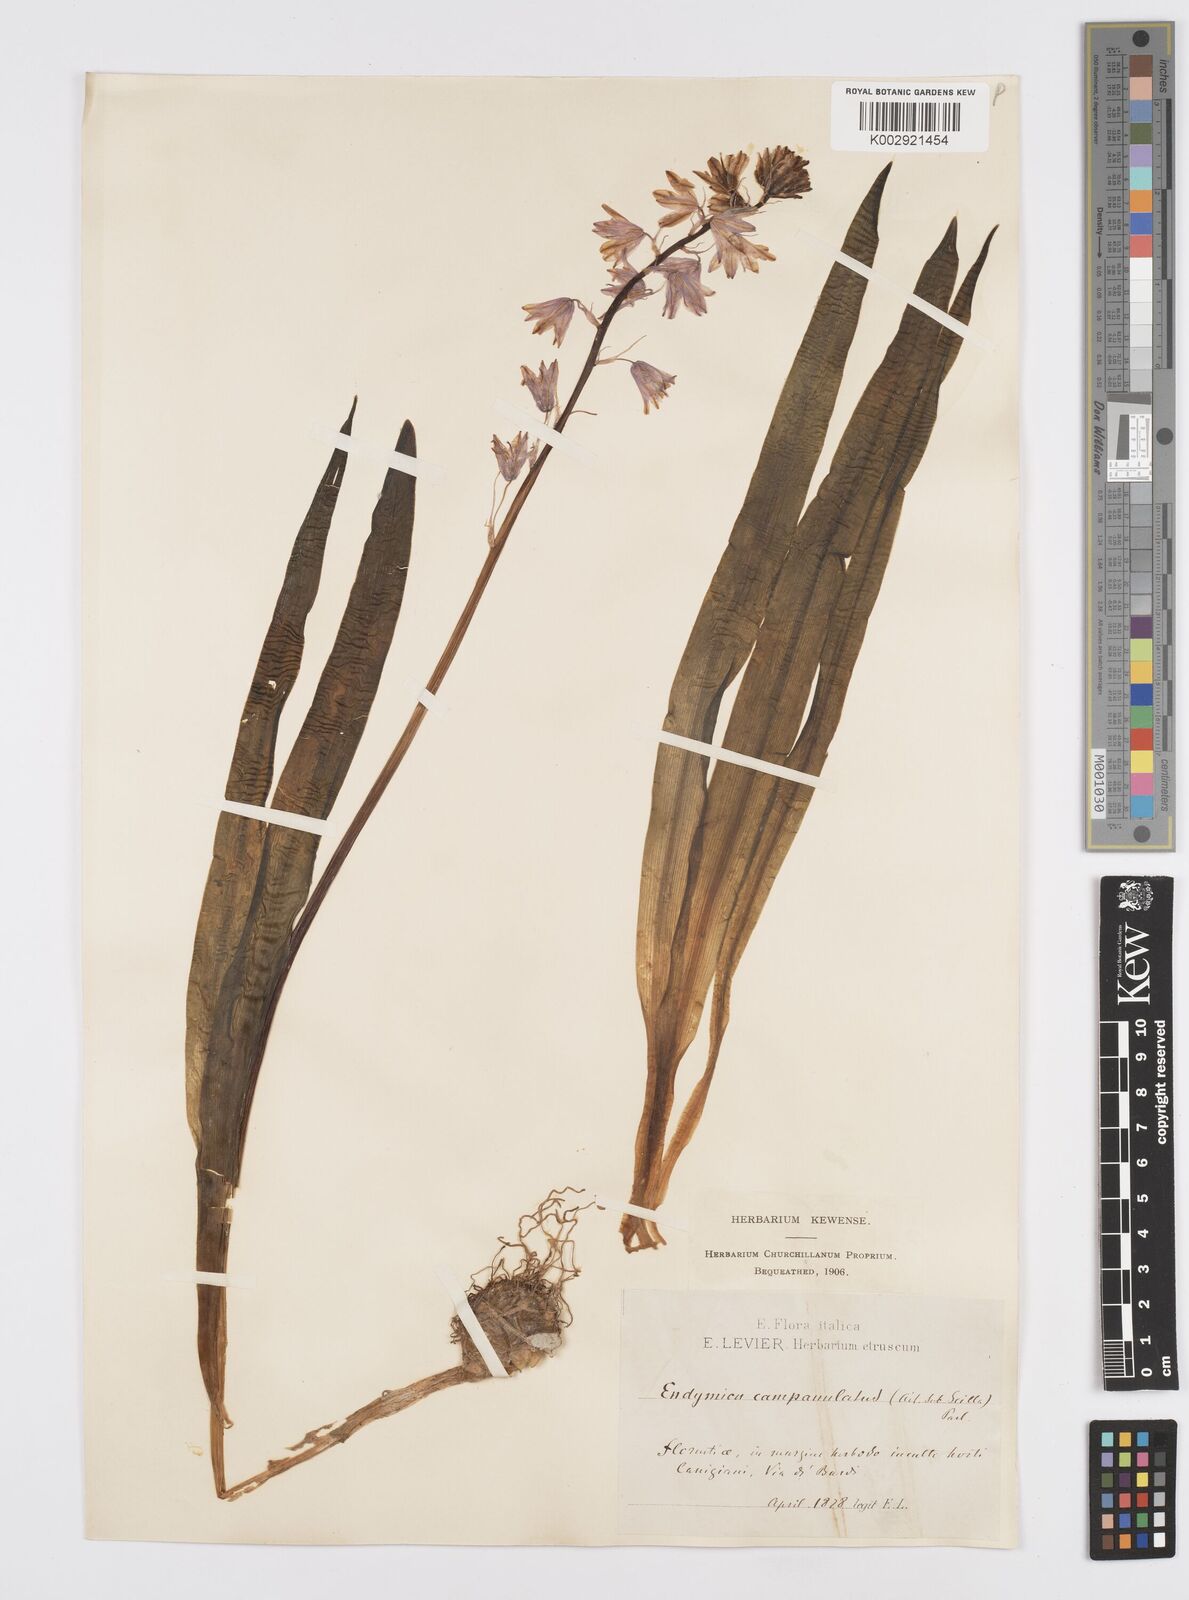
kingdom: Plantae
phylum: Tracheophyta
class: Liliopsida
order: Asparagales
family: Asparagaceae
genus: Hyacinthoides
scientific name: Hyacinthoides hispanica
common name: Spanish bluebell
